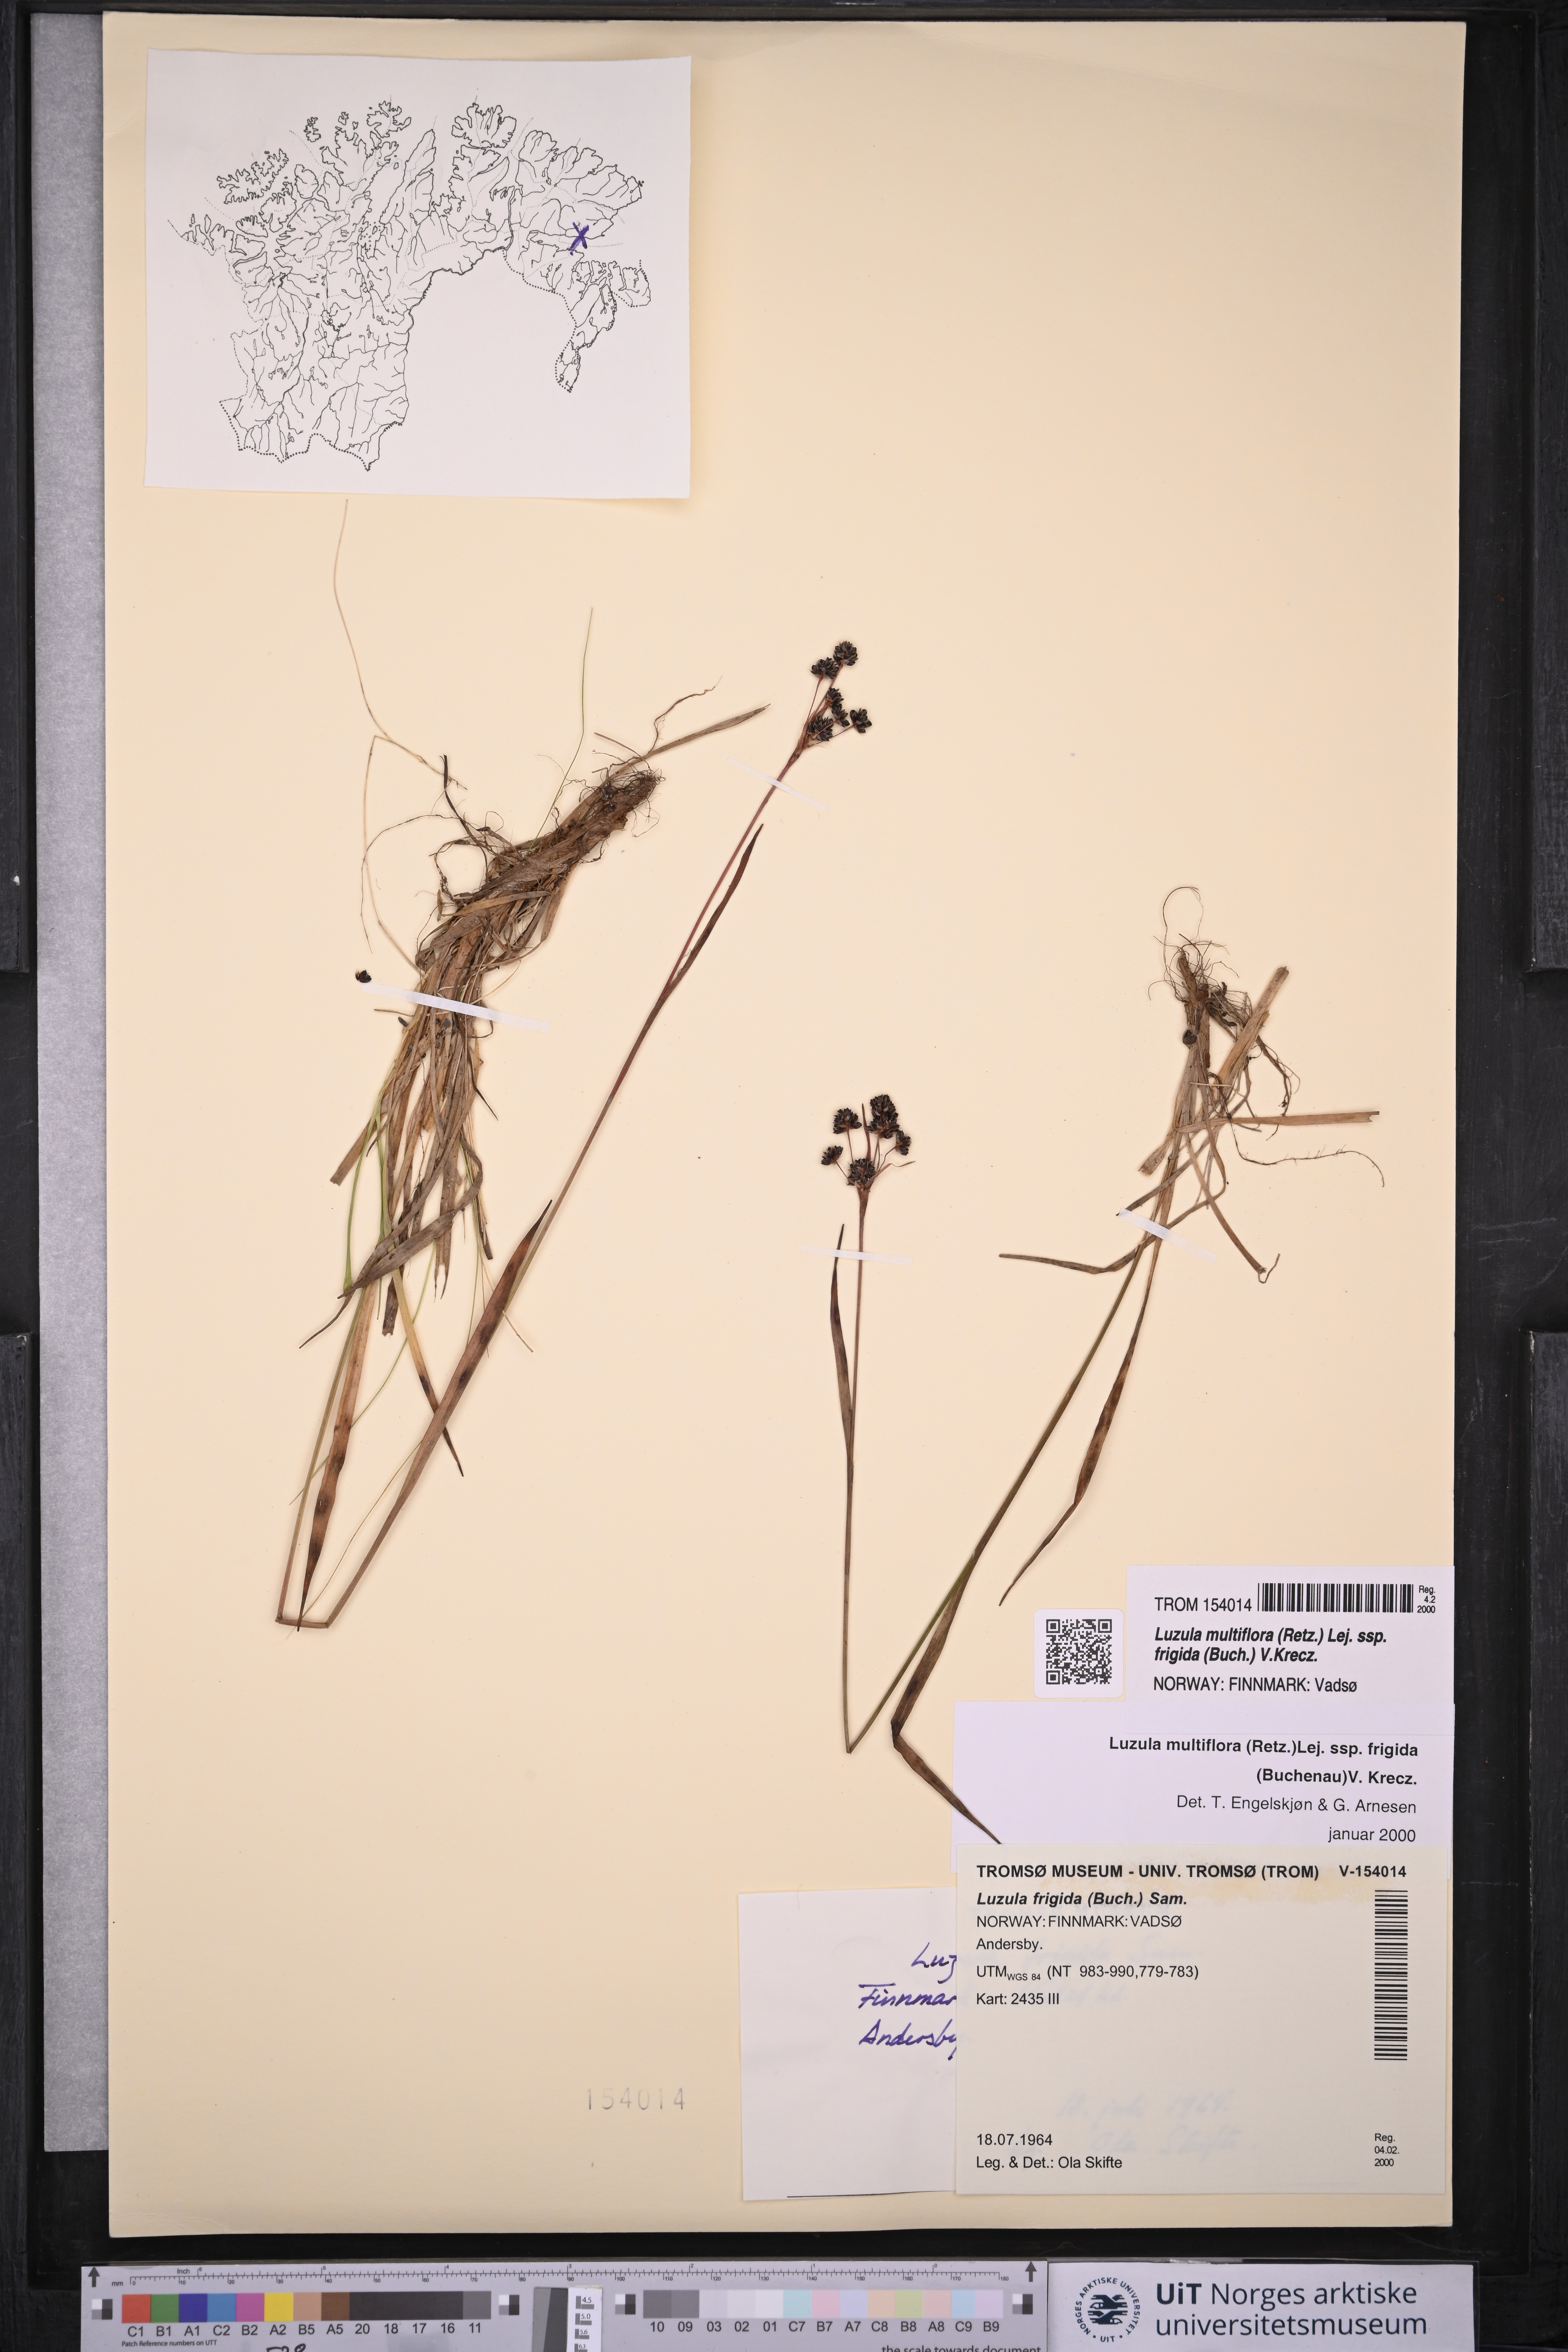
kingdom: Plantae
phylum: Tracheophyta
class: Liliopsida
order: Poales
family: Juncaceae
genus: Luzula
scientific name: Luzula multiflora
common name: Heath wood-rush
